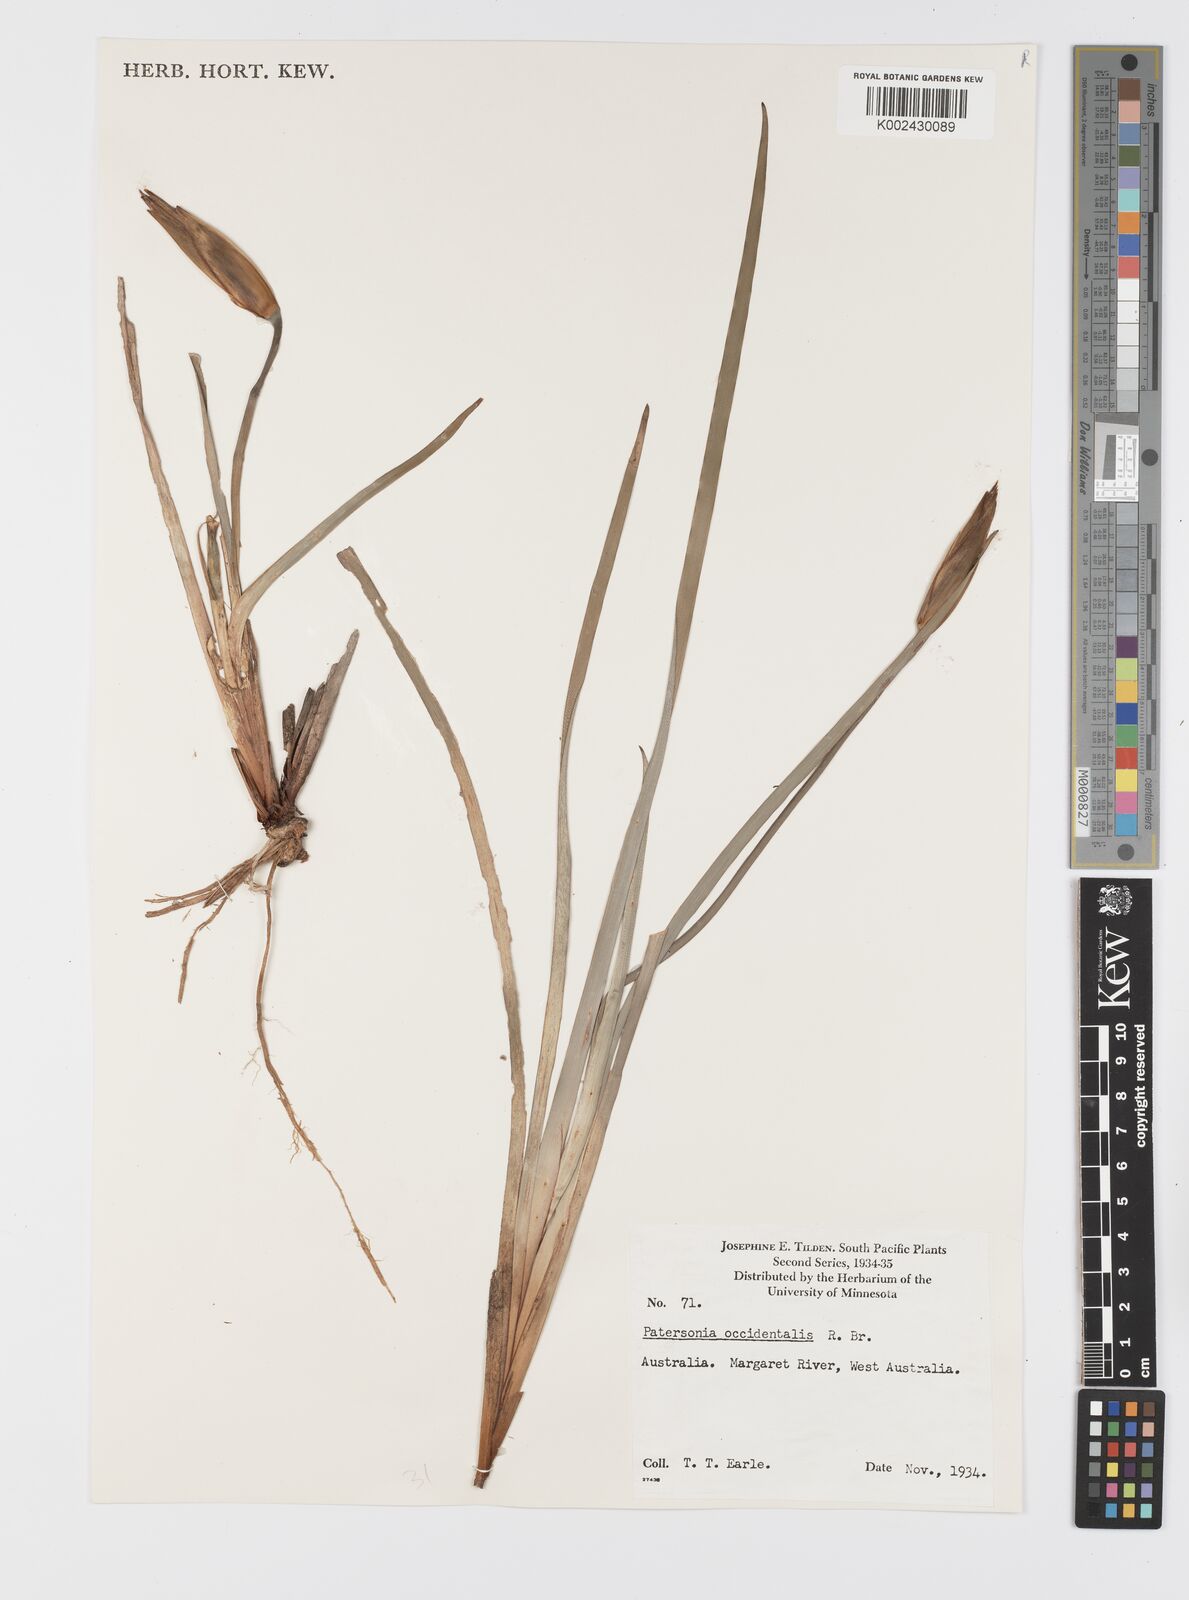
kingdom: Plantae
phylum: Tracheophyta
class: Liliopsida
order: Asparagales
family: Iridaceae
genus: Patersonia
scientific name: Patersonia occidentalis
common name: Long purple-flag
